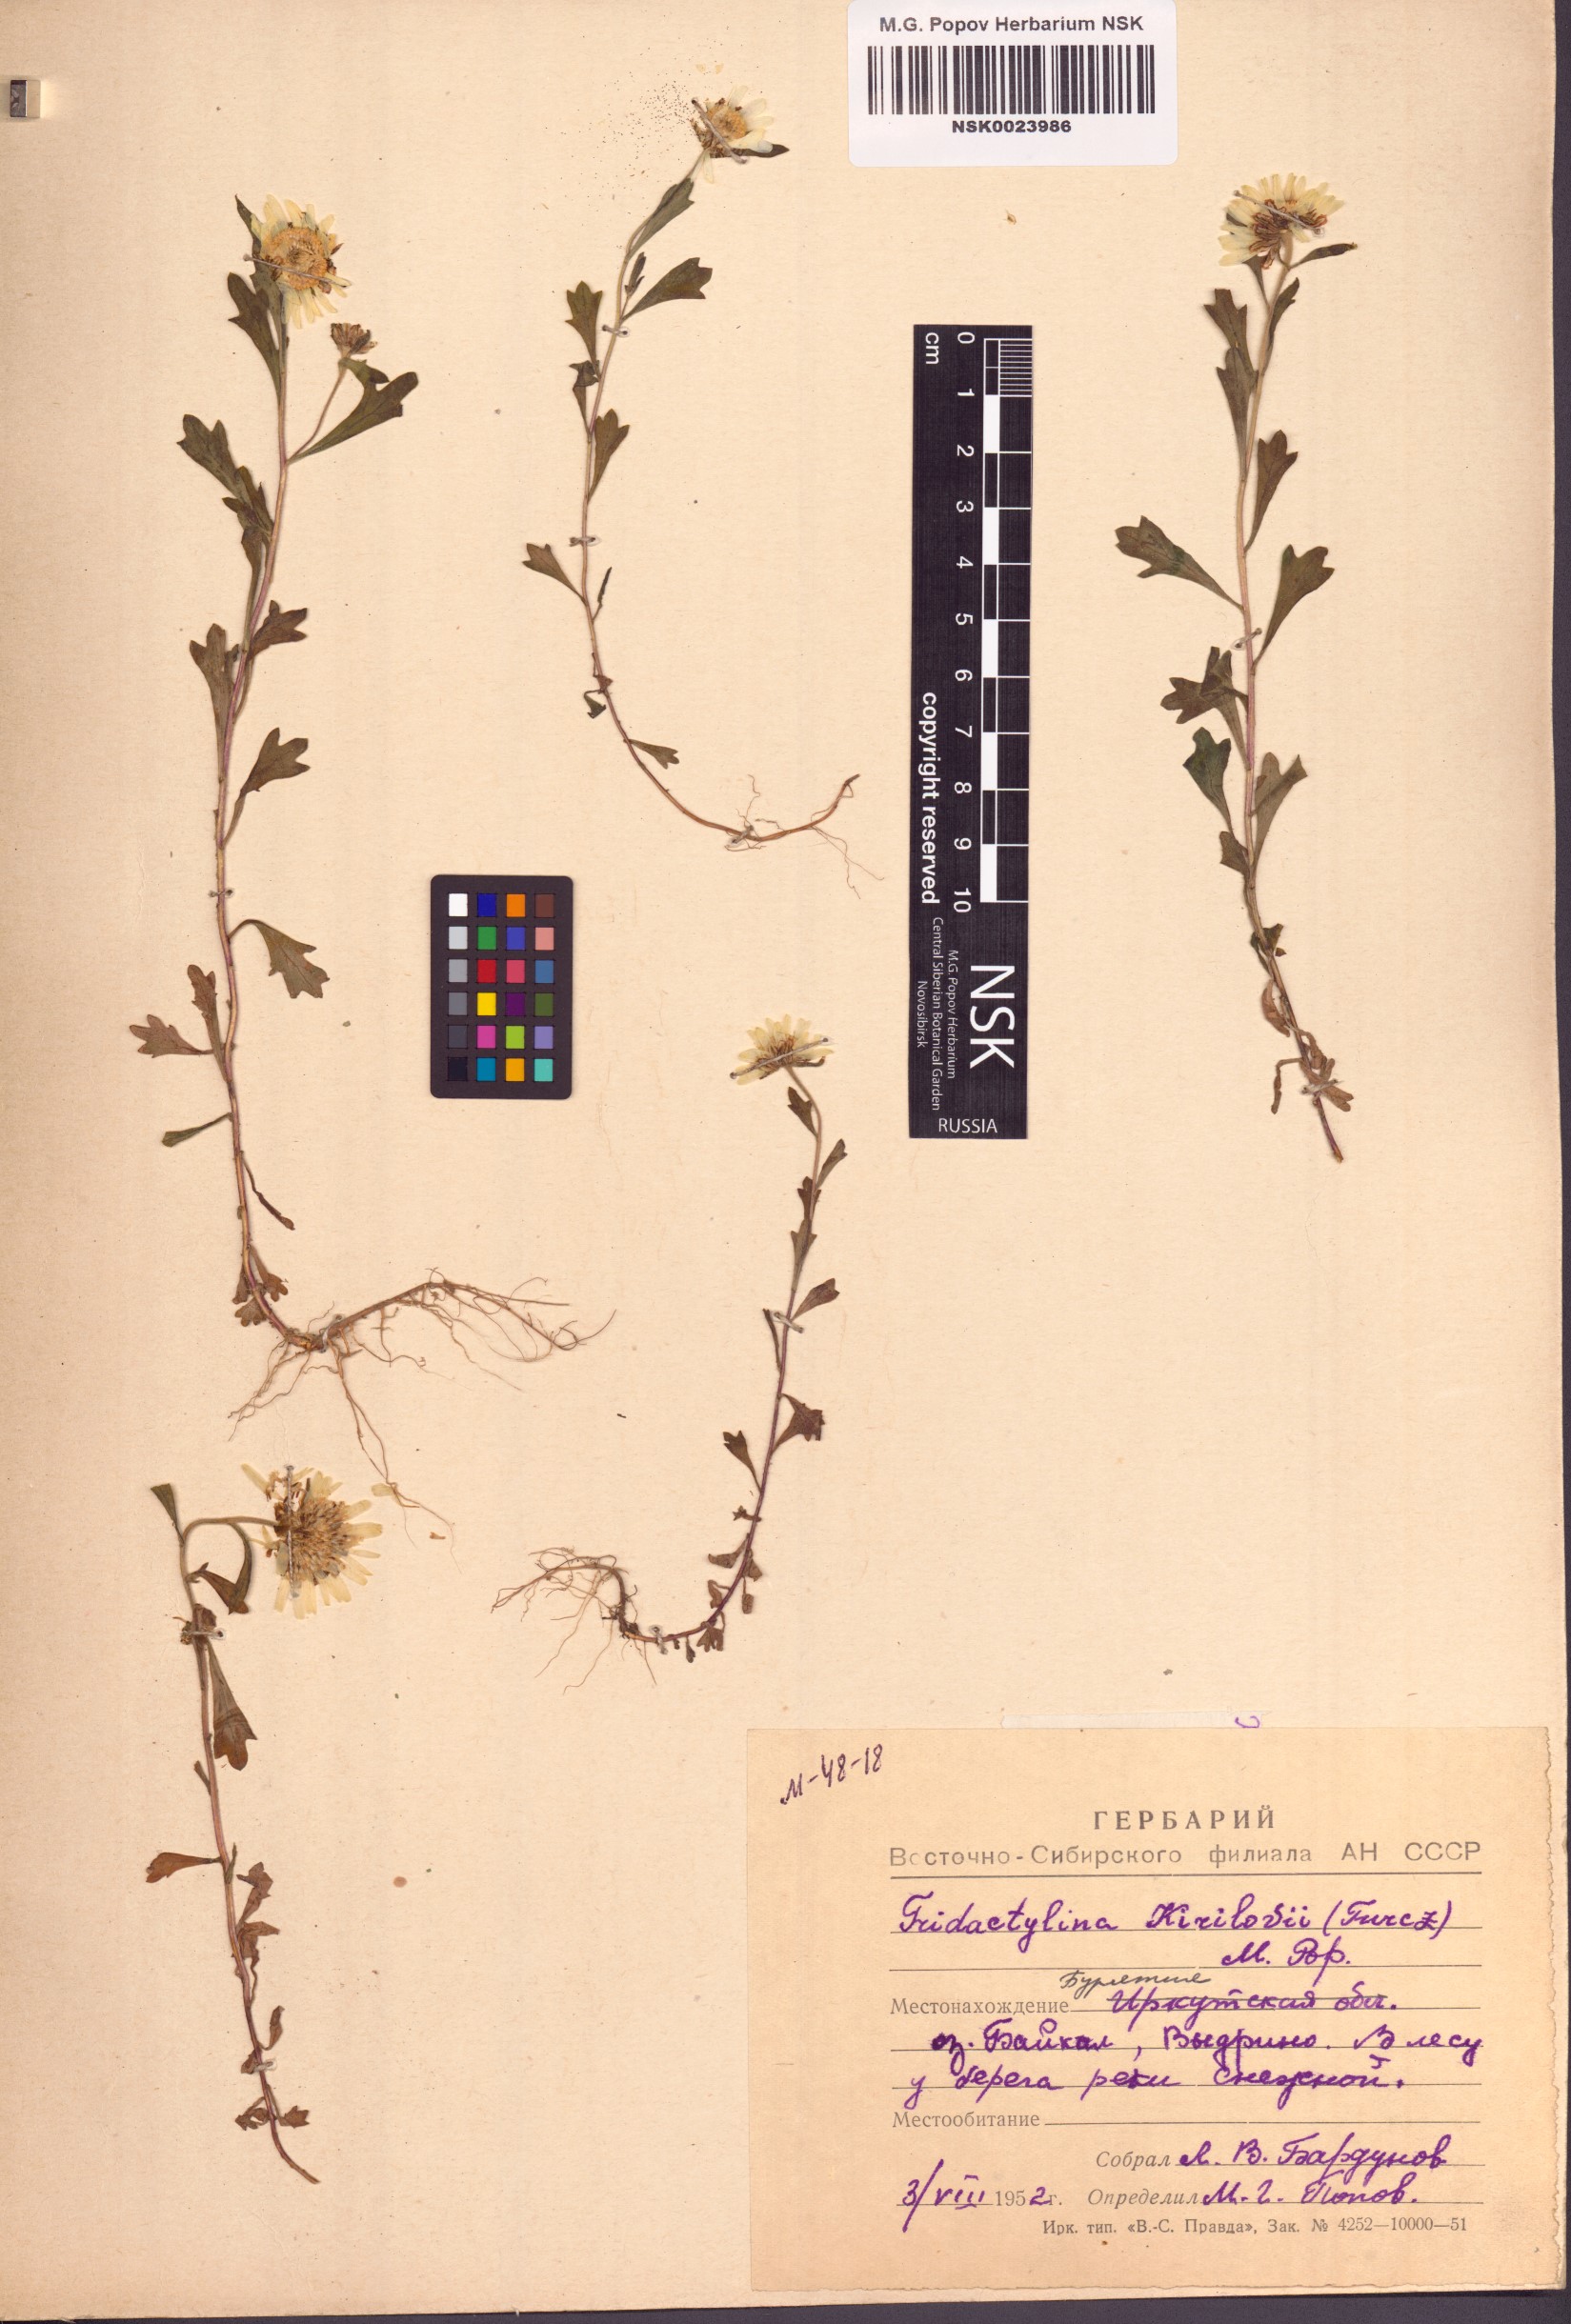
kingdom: Plantae
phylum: Tracheophyta
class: Magnoliopsida
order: Asterales
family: Asteraceae
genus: Tridactylina
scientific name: Tridactylina kirilowii
